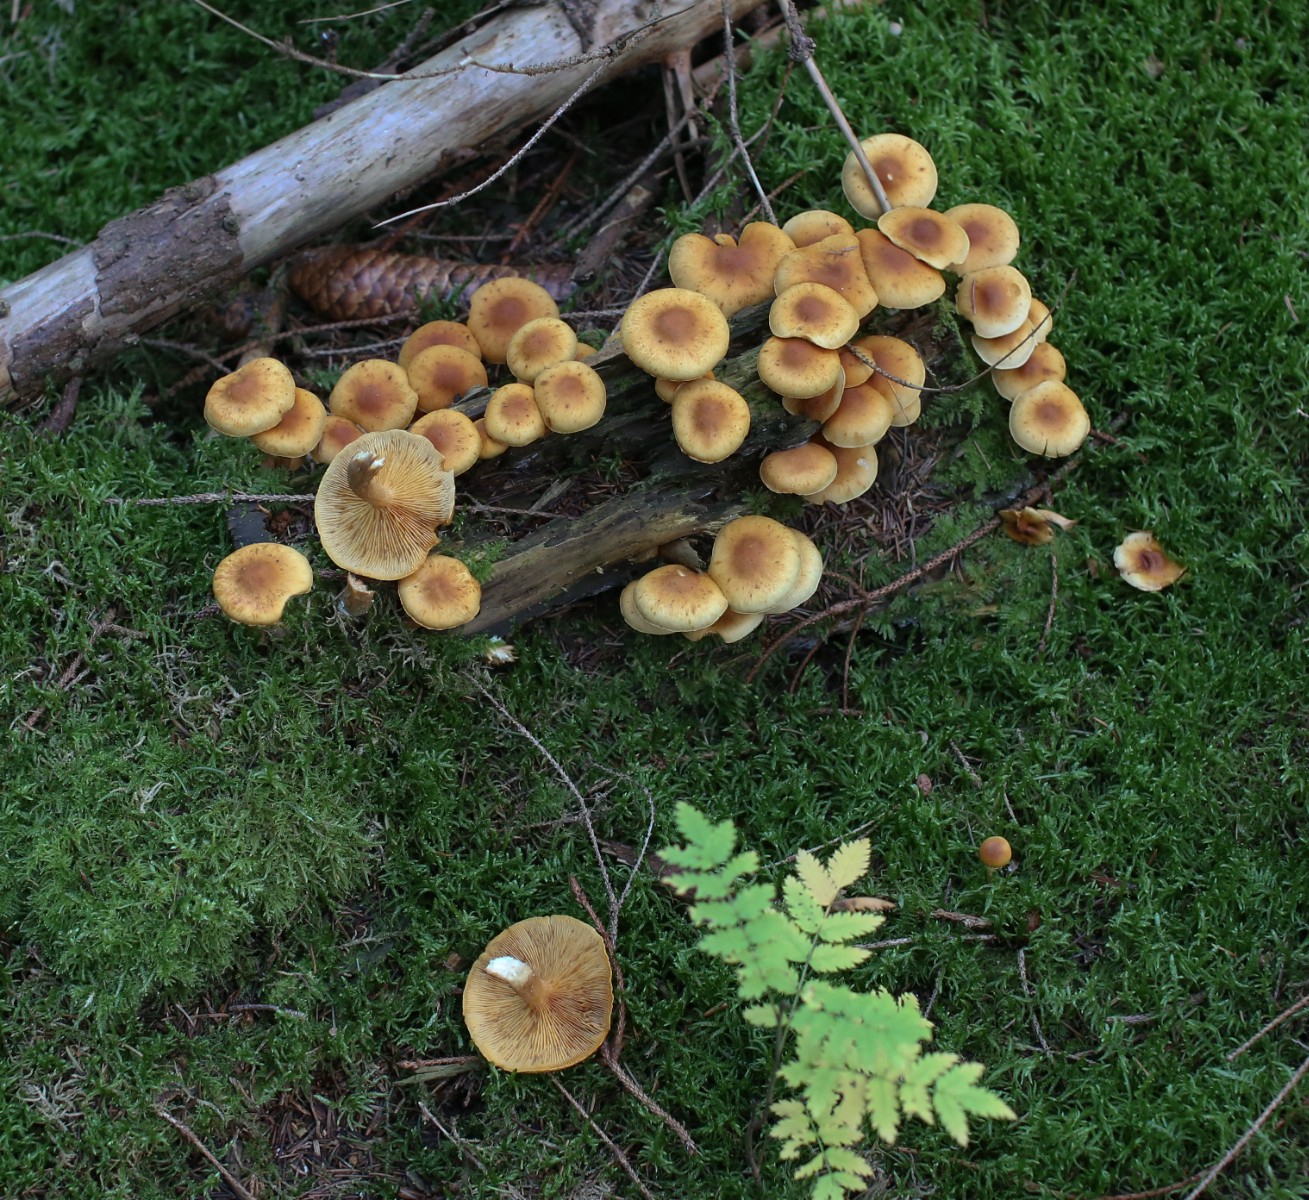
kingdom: Fungi
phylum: Basidiomycota
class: Agaricomycetes
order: Agaricales
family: Hymenogastraceae
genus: Gymnopilus
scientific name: Gymnopilus penetrans
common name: plettet flammehat
